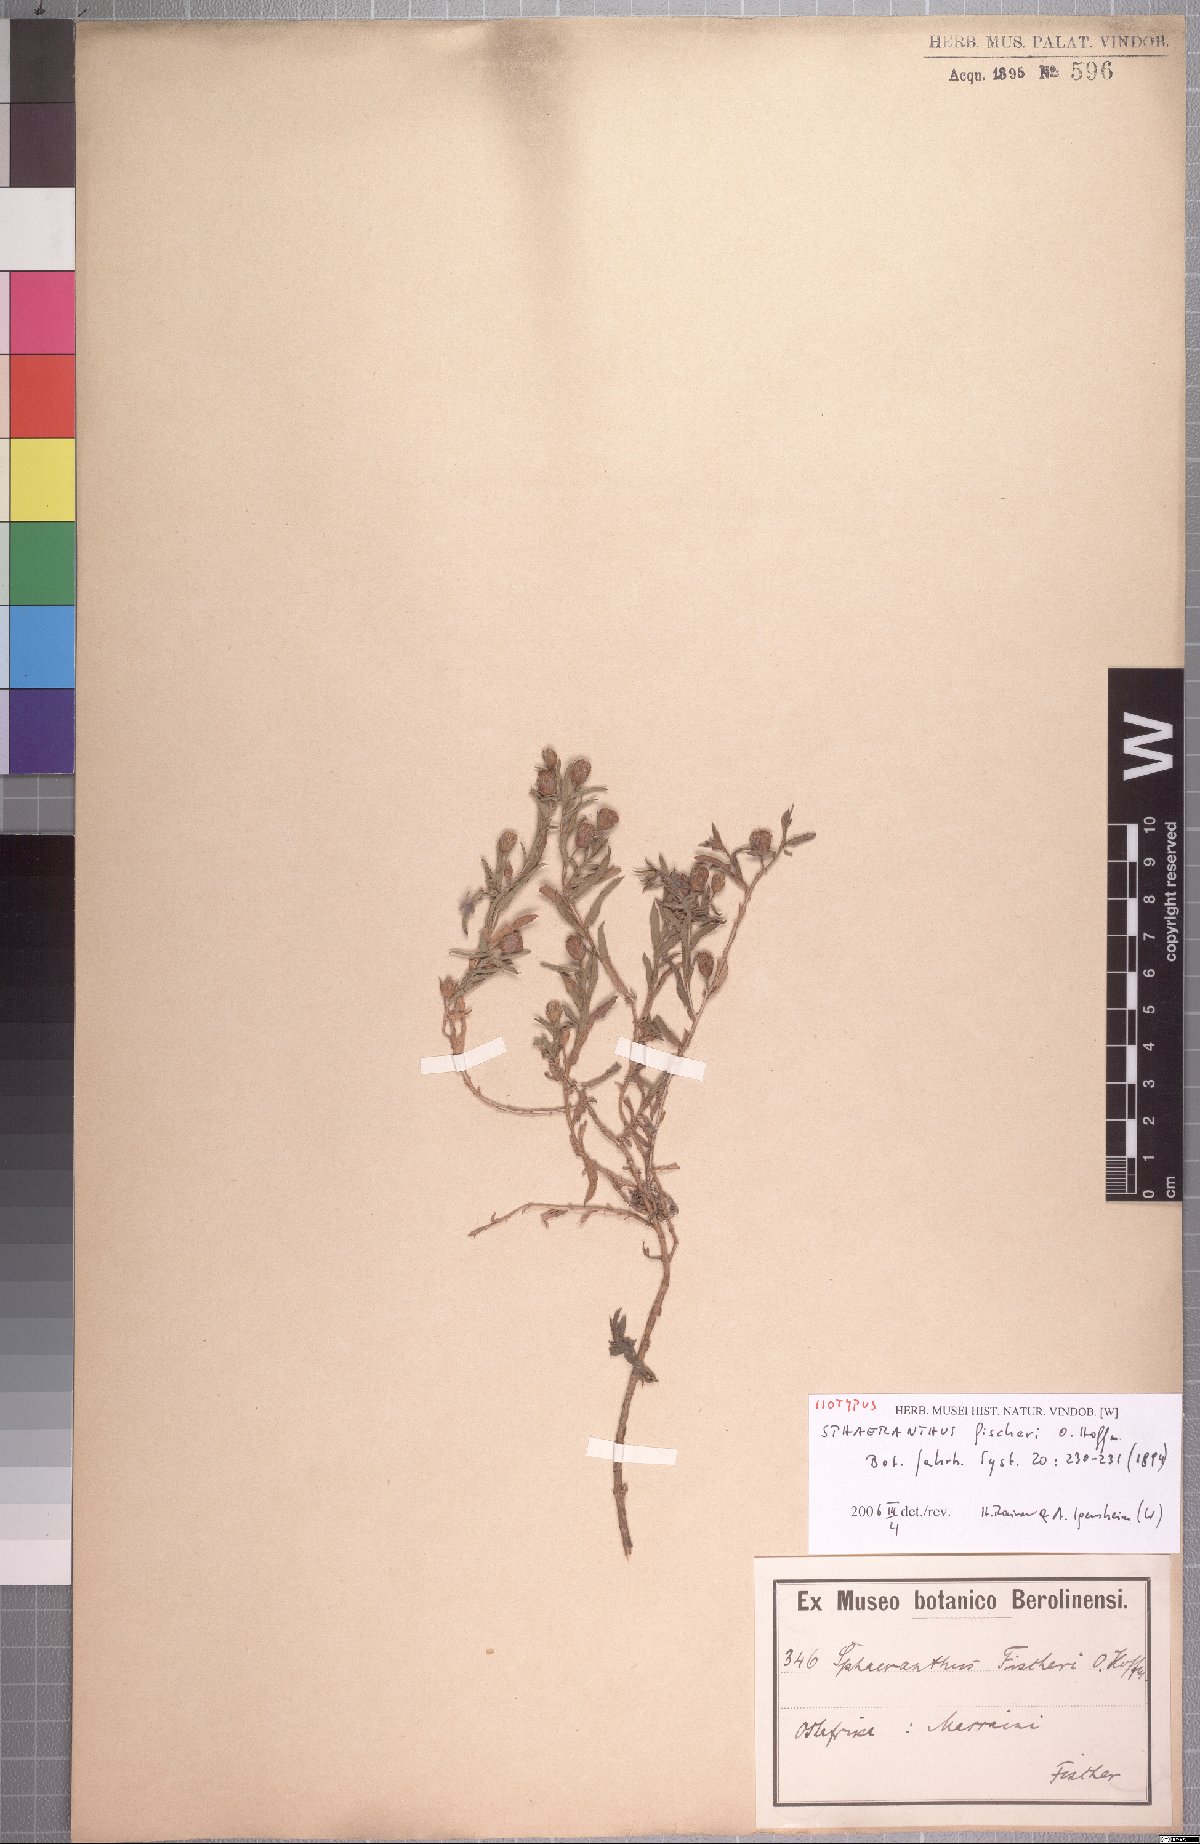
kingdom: Plantae
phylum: Tracheophyta
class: Magnoliopsida
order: Asterales
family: Asteraceae
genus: Sphaeranthus
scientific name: Sphaeranthus fischeri
